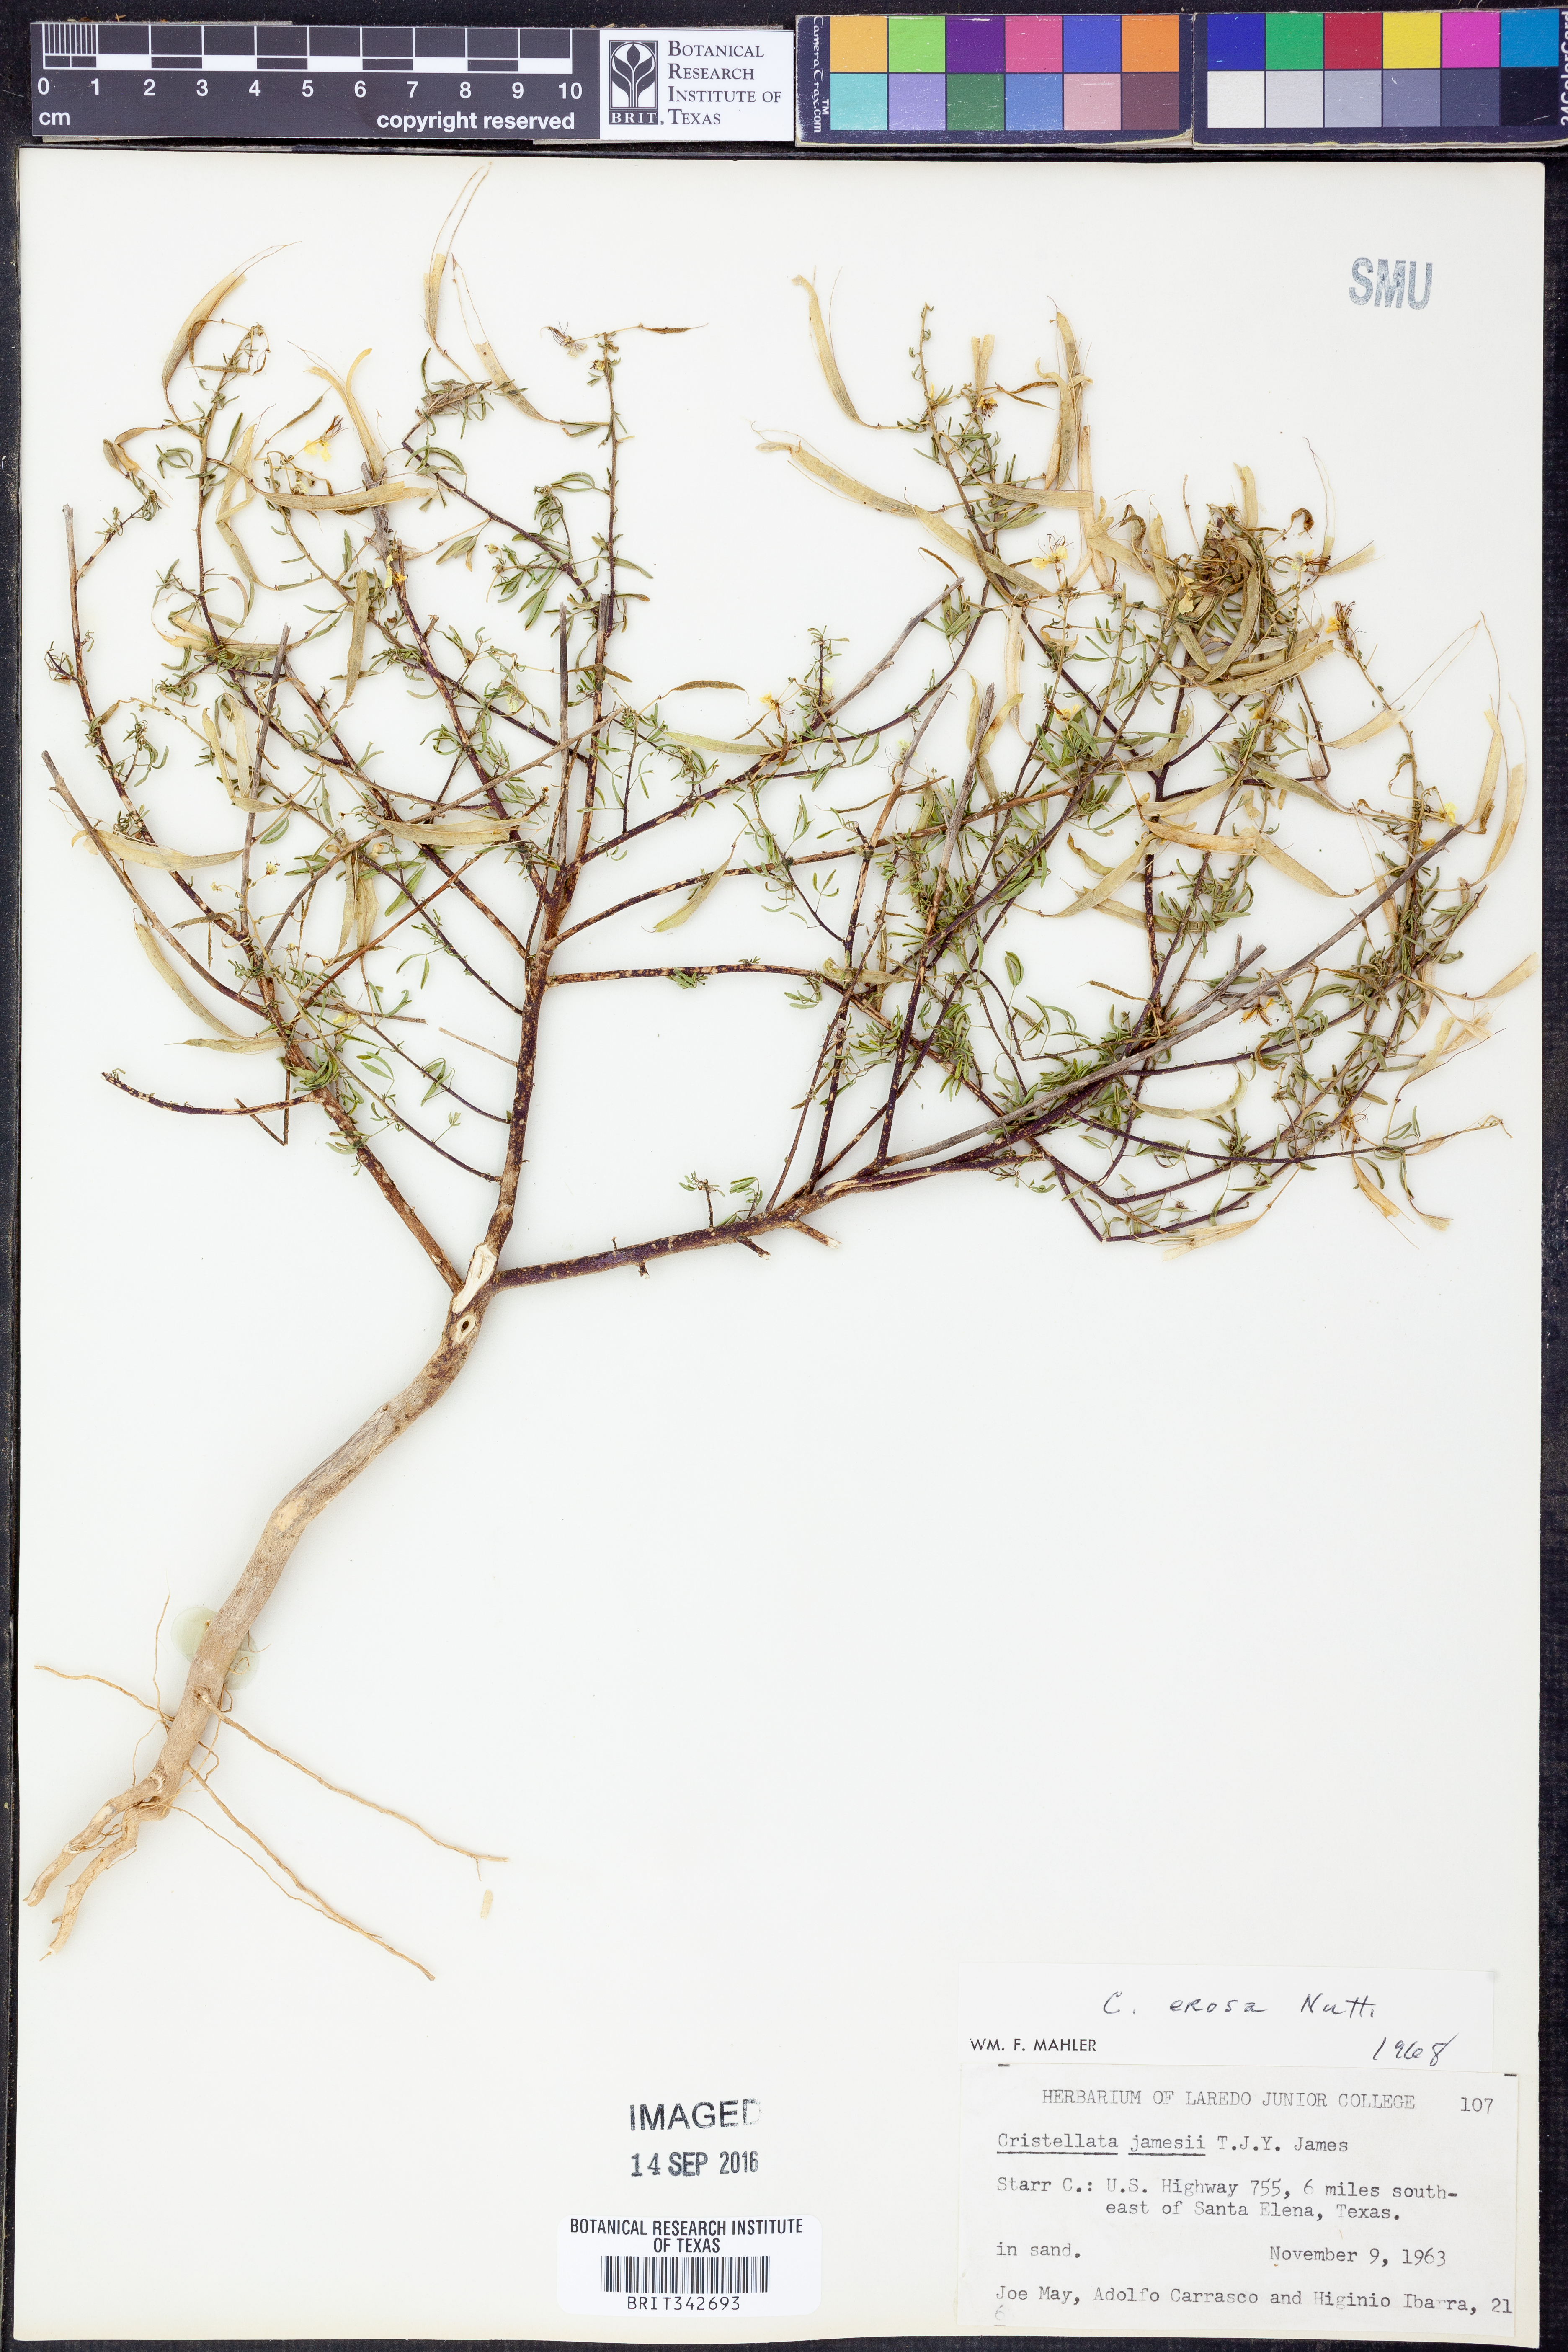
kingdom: Plantae
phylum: Tracheophyta
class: Magnoliopsida
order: Brassicales
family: Cleomaceae
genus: Polanisia
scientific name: Polanisia erosa
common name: Large clammyweed
